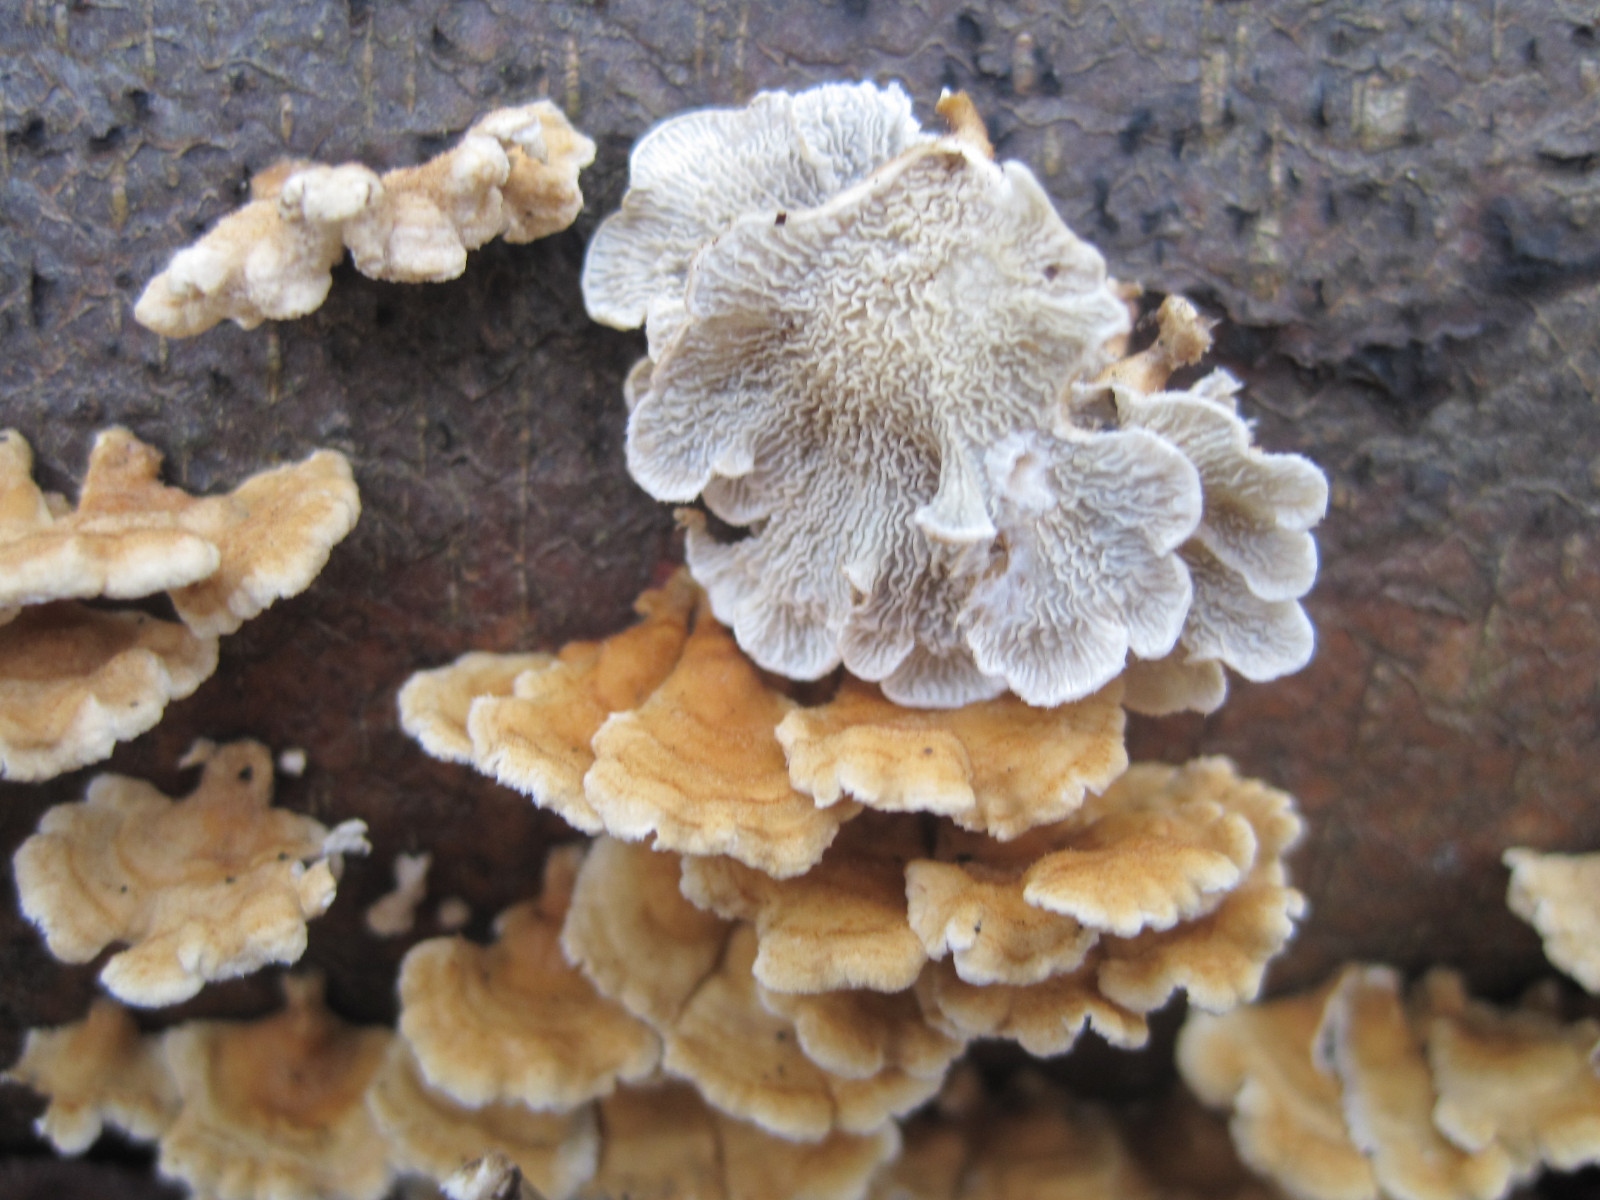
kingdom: Fungi
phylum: Basidiomycota
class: Agaricomycetes
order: Amylocorticiales
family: Amylocorticiaceae
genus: Plicaturopsis
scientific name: Plicaturopsis crispa
